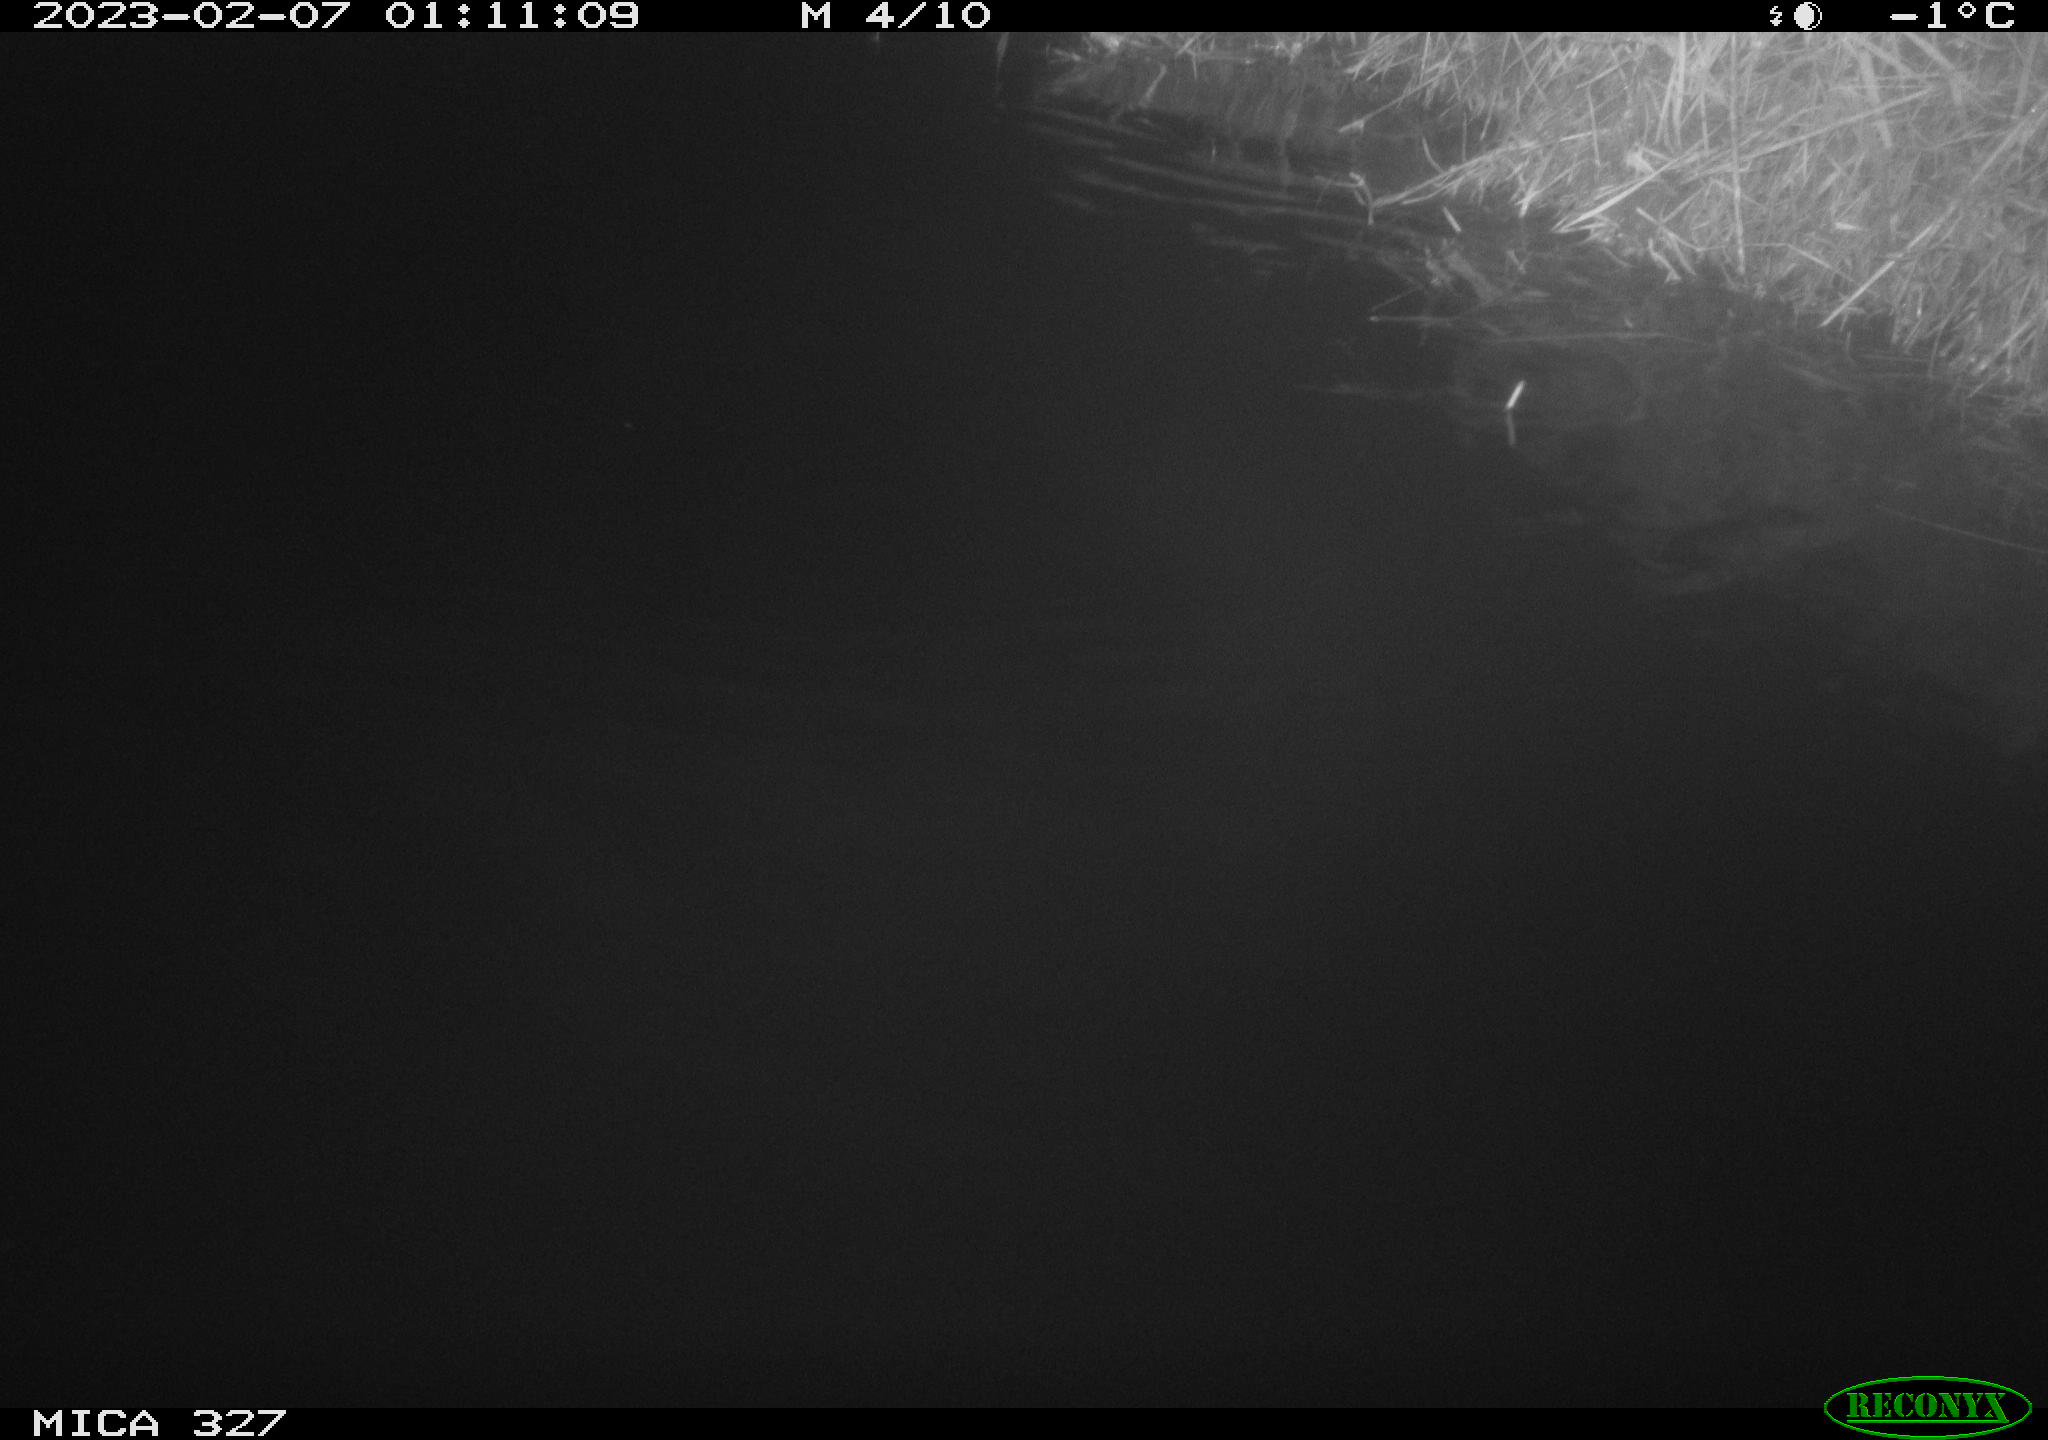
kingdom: Animalia
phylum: Chordata
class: Mammalia
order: Rodentia
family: Cricetidae
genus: Ondatra
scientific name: Ondatra zibethicus
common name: Muskrat
